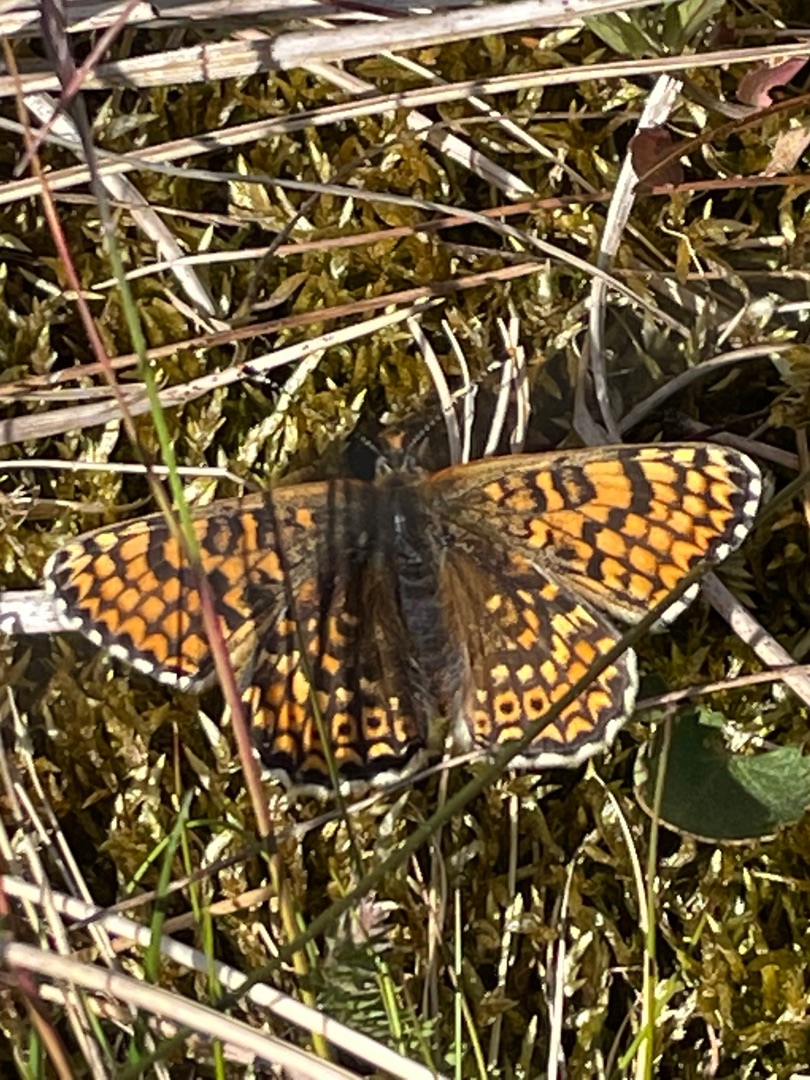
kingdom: Animalia
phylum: Arthropoda
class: Insecta
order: Lepidoptera
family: Nymphalidae
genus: Melitaea
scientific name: Melitaea cinxia
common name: Okkergul pletvinge
